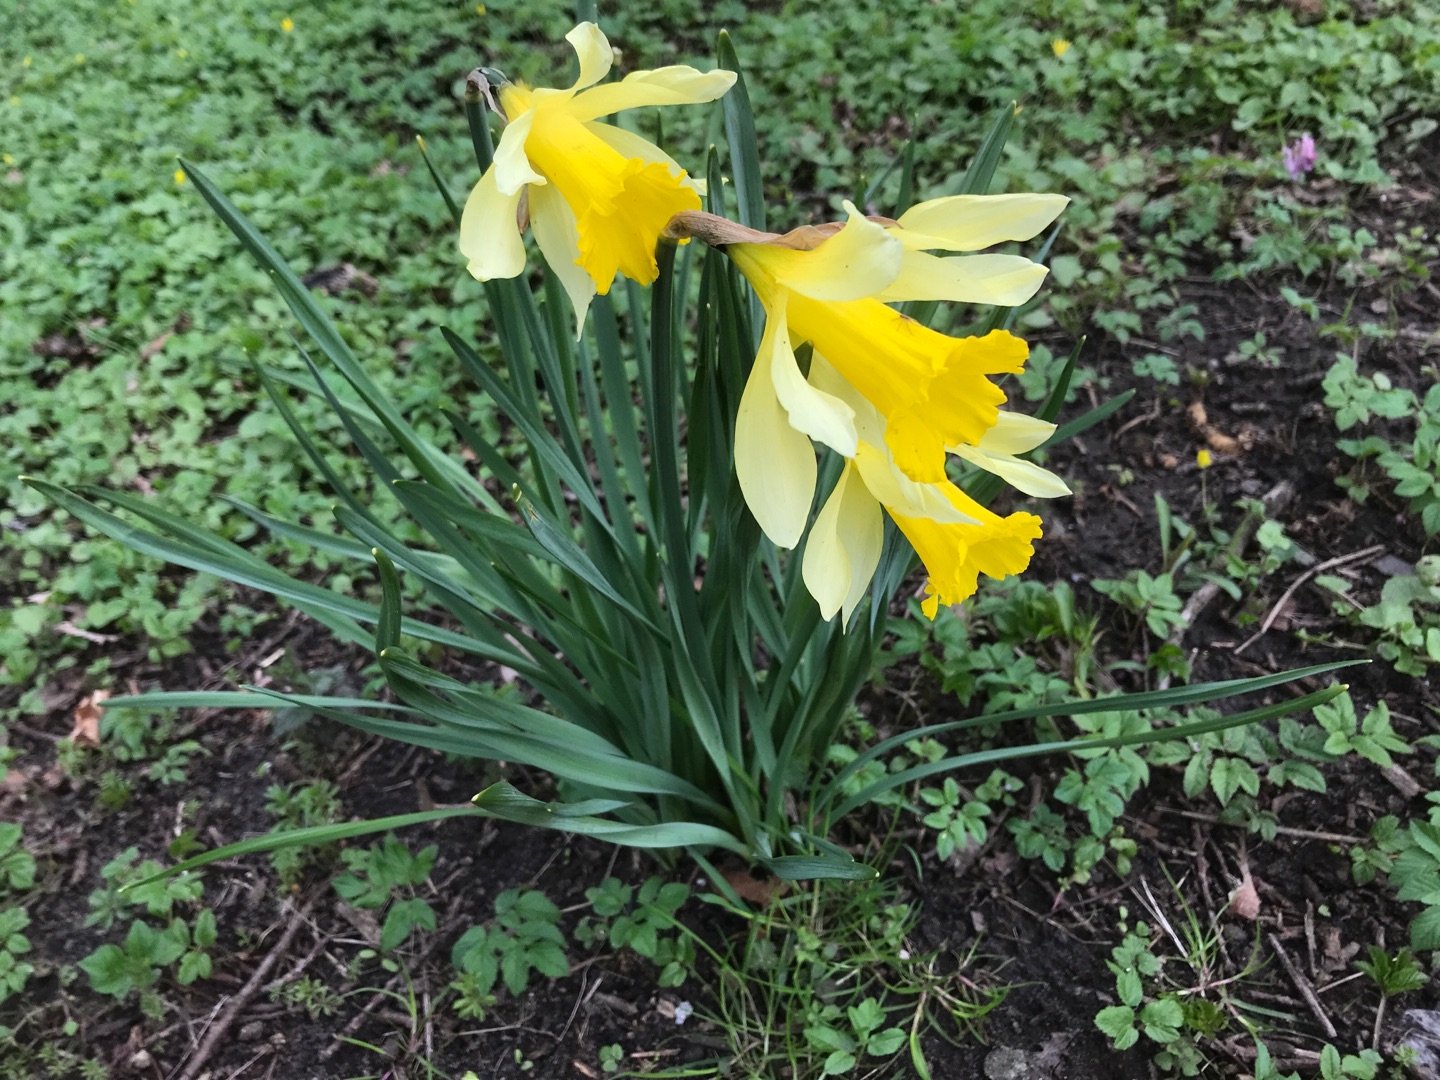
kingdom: Plantae
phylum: Tracheophyta
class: Liliopsida
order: Asparagales
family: Amaryllidaceae
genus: Narcissus
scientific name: Narcissus pseudonarcissus
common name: Påskelilje
